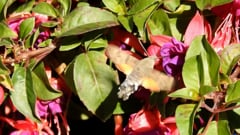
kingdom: Animalia
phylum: Arthropoda
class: Insecta
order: Lepidoptera
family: Sphingidae
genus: Macroglossum
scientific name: Macroglossum stellatarum
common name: Humming-bird hawk-moth
